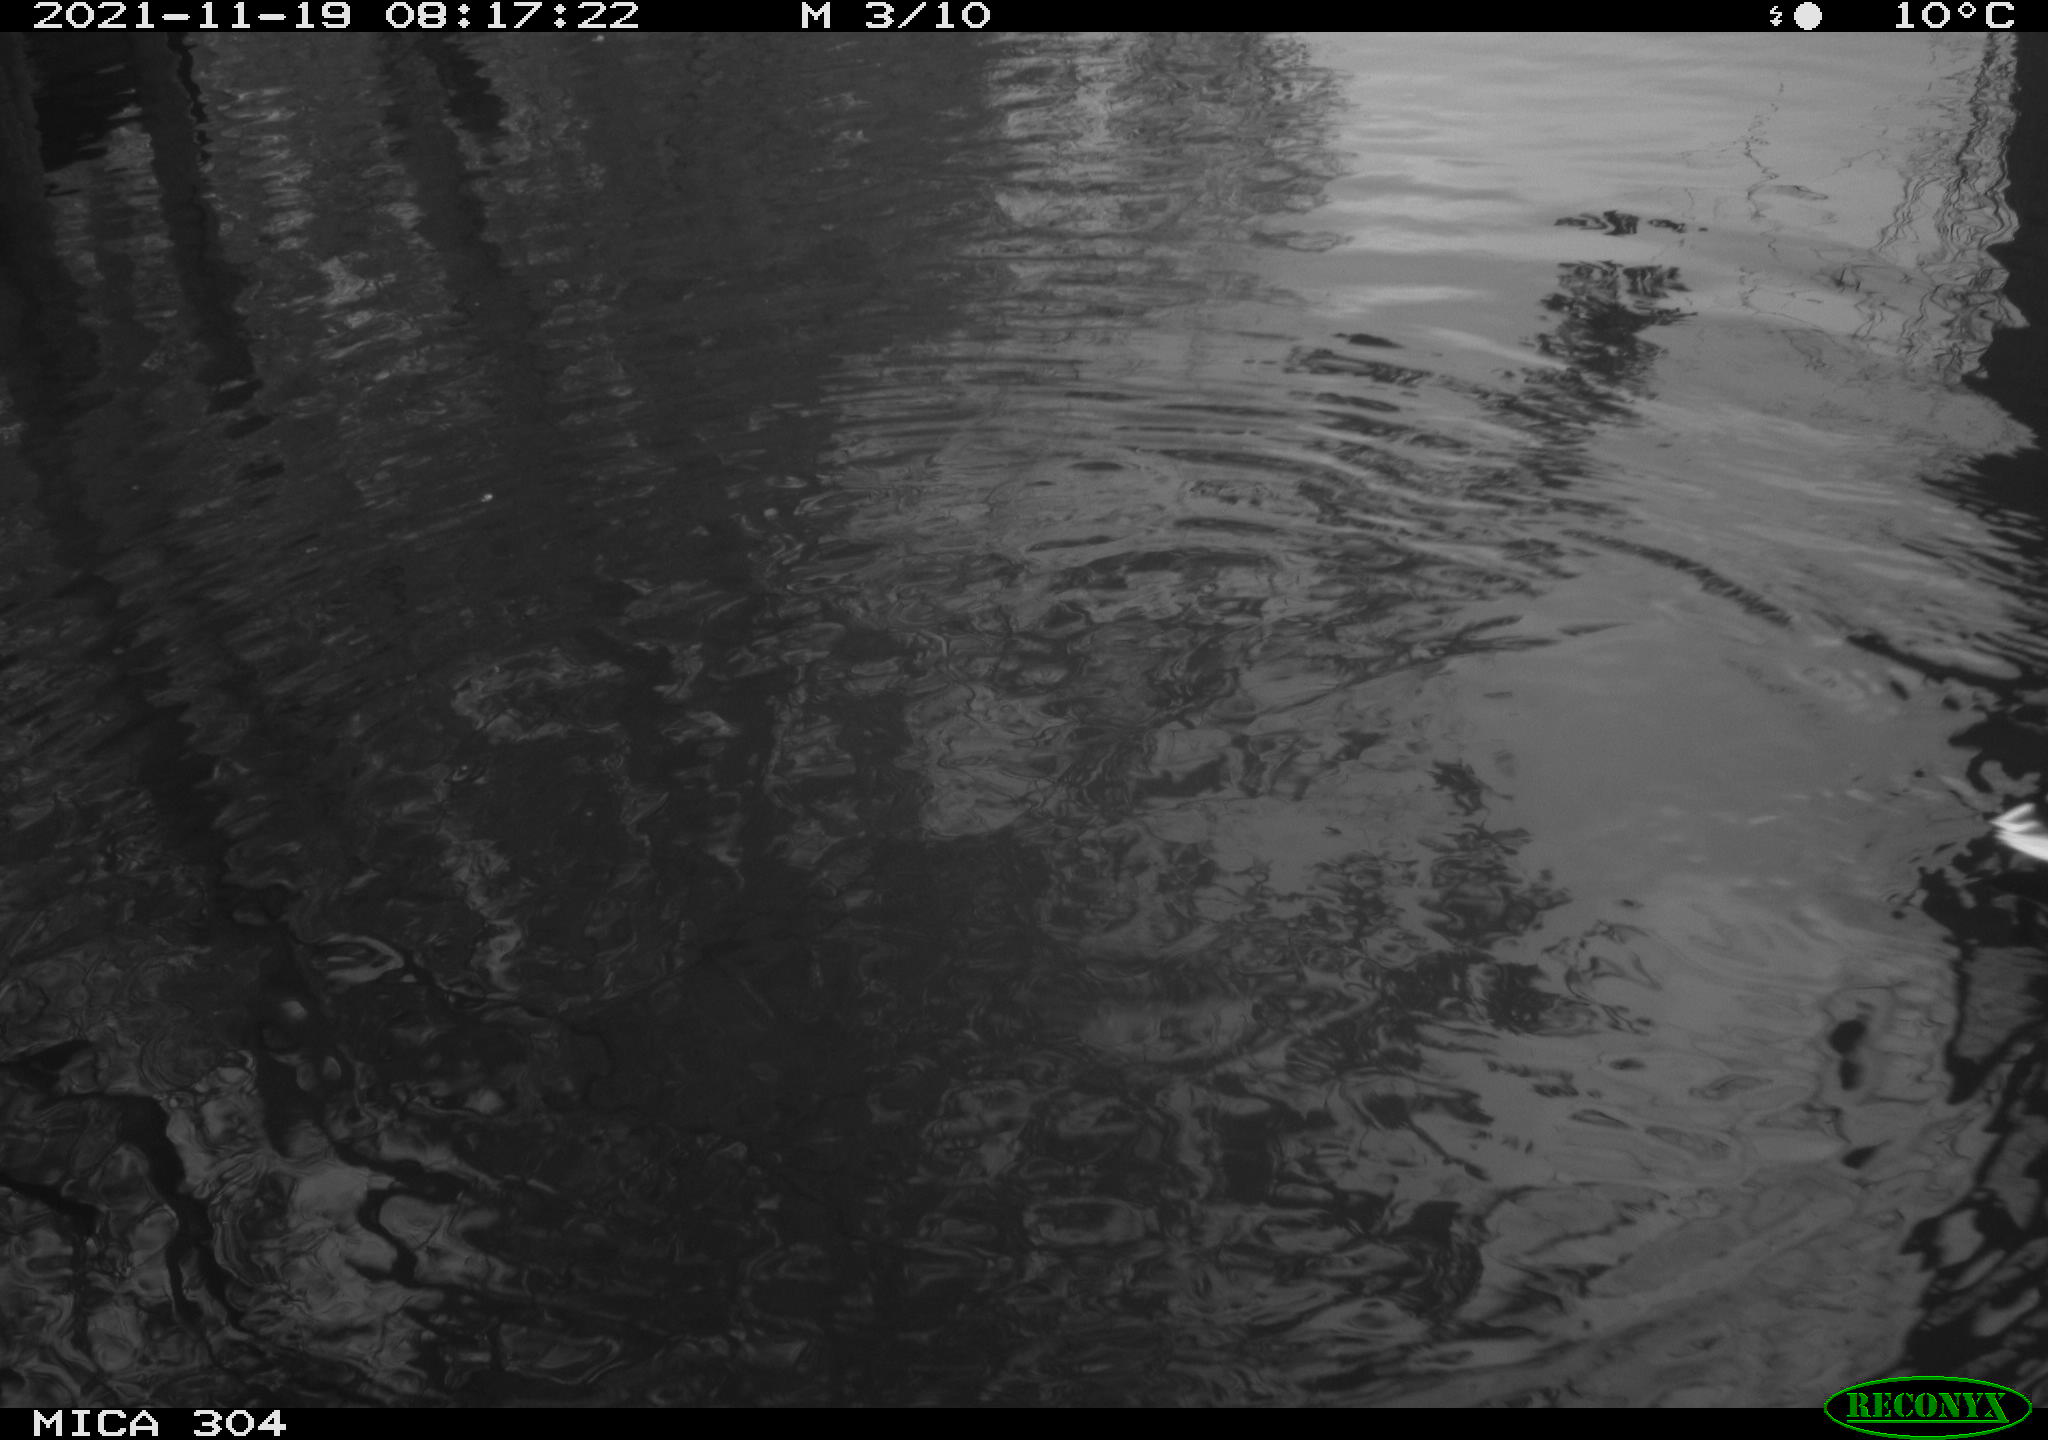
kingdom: Animalia
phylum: Chordata
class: Aves
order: Gruiformes
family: Rallidae
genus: Fulica
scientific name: Fulica atra
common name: Eurasian coot
